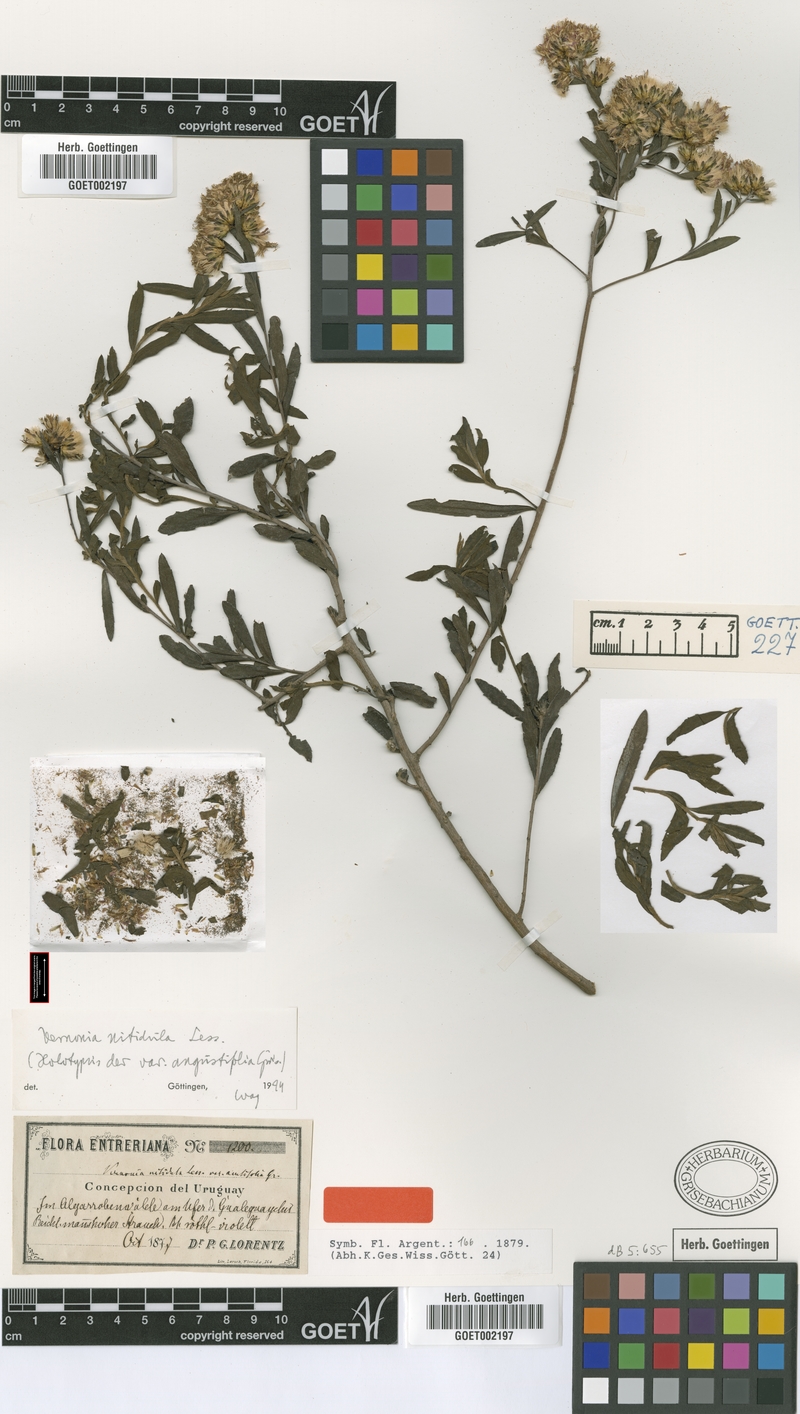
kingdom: Plantae
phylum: Tracheophyta
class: Magnoliopsida
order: Asterales
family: Asteraceae
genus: Vernonanthura
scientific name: Vernonanthura montevidensis
